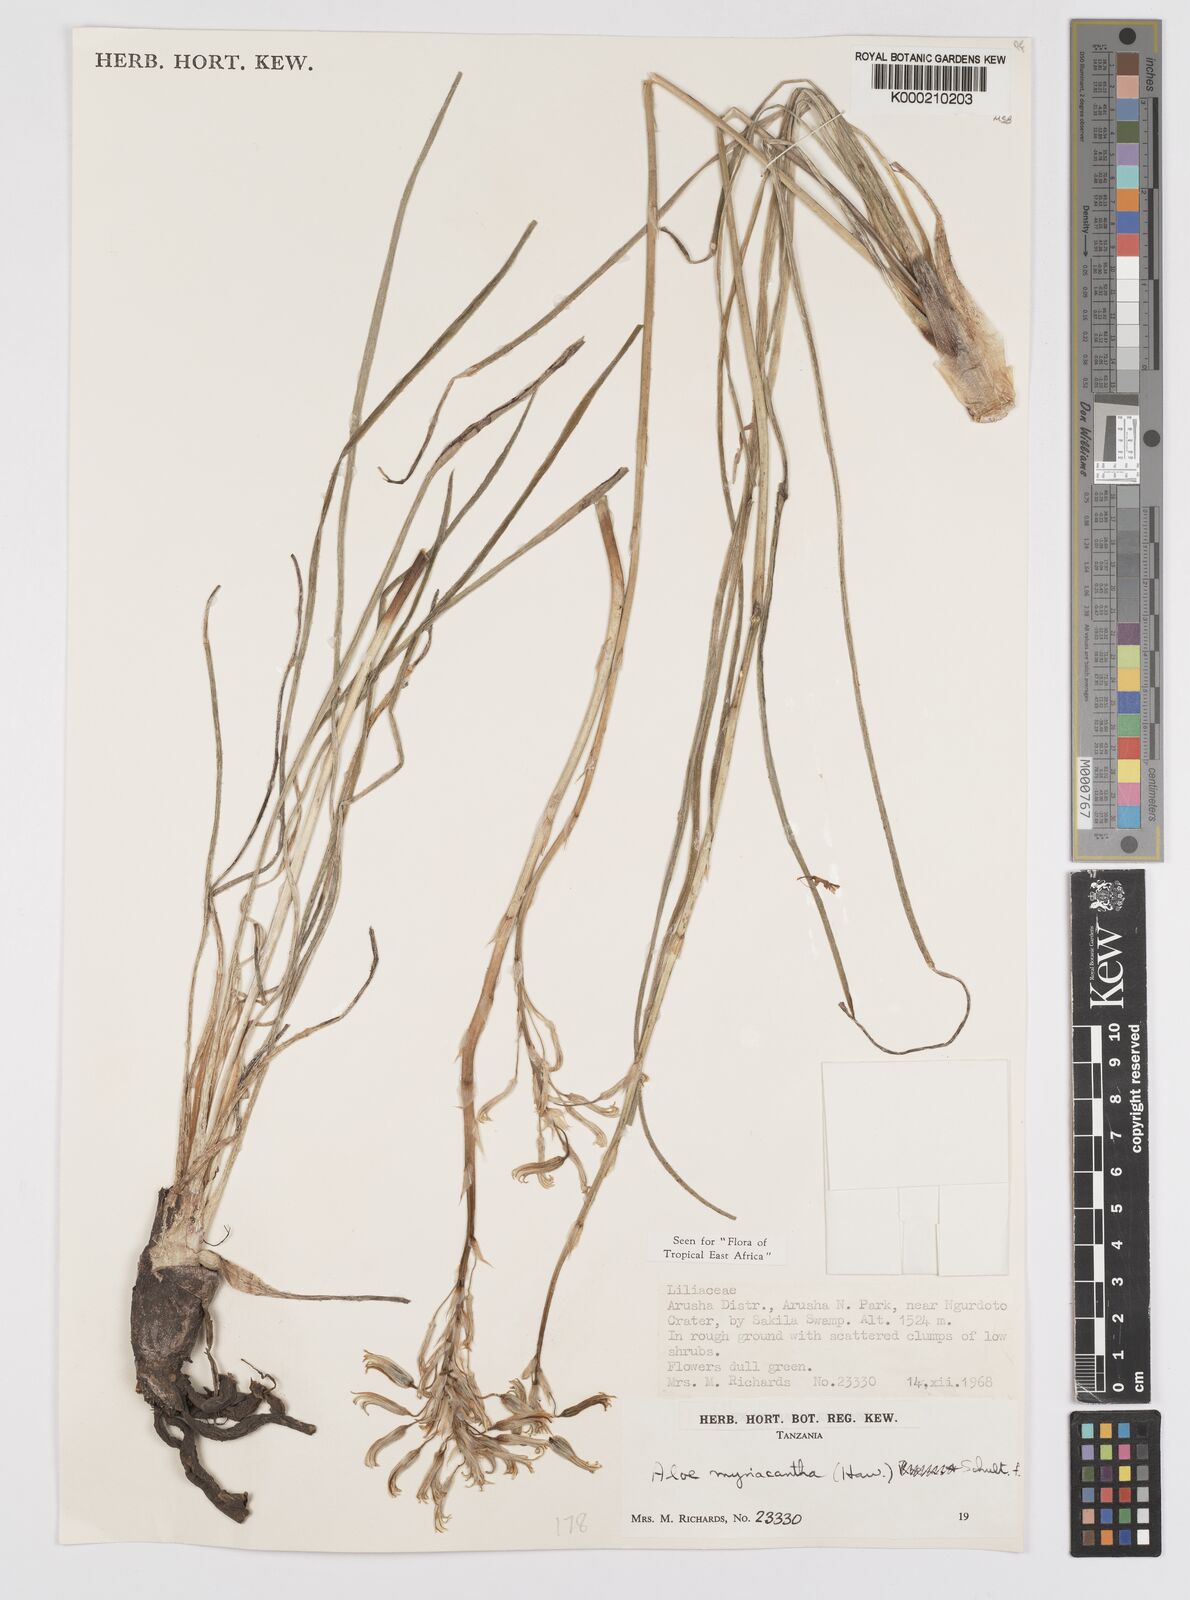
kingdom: Plantae
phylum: Tracheophyta
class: Liliopsida
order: Asparagales
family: Asphodelaceae
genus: Aloe
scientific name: Aloe
